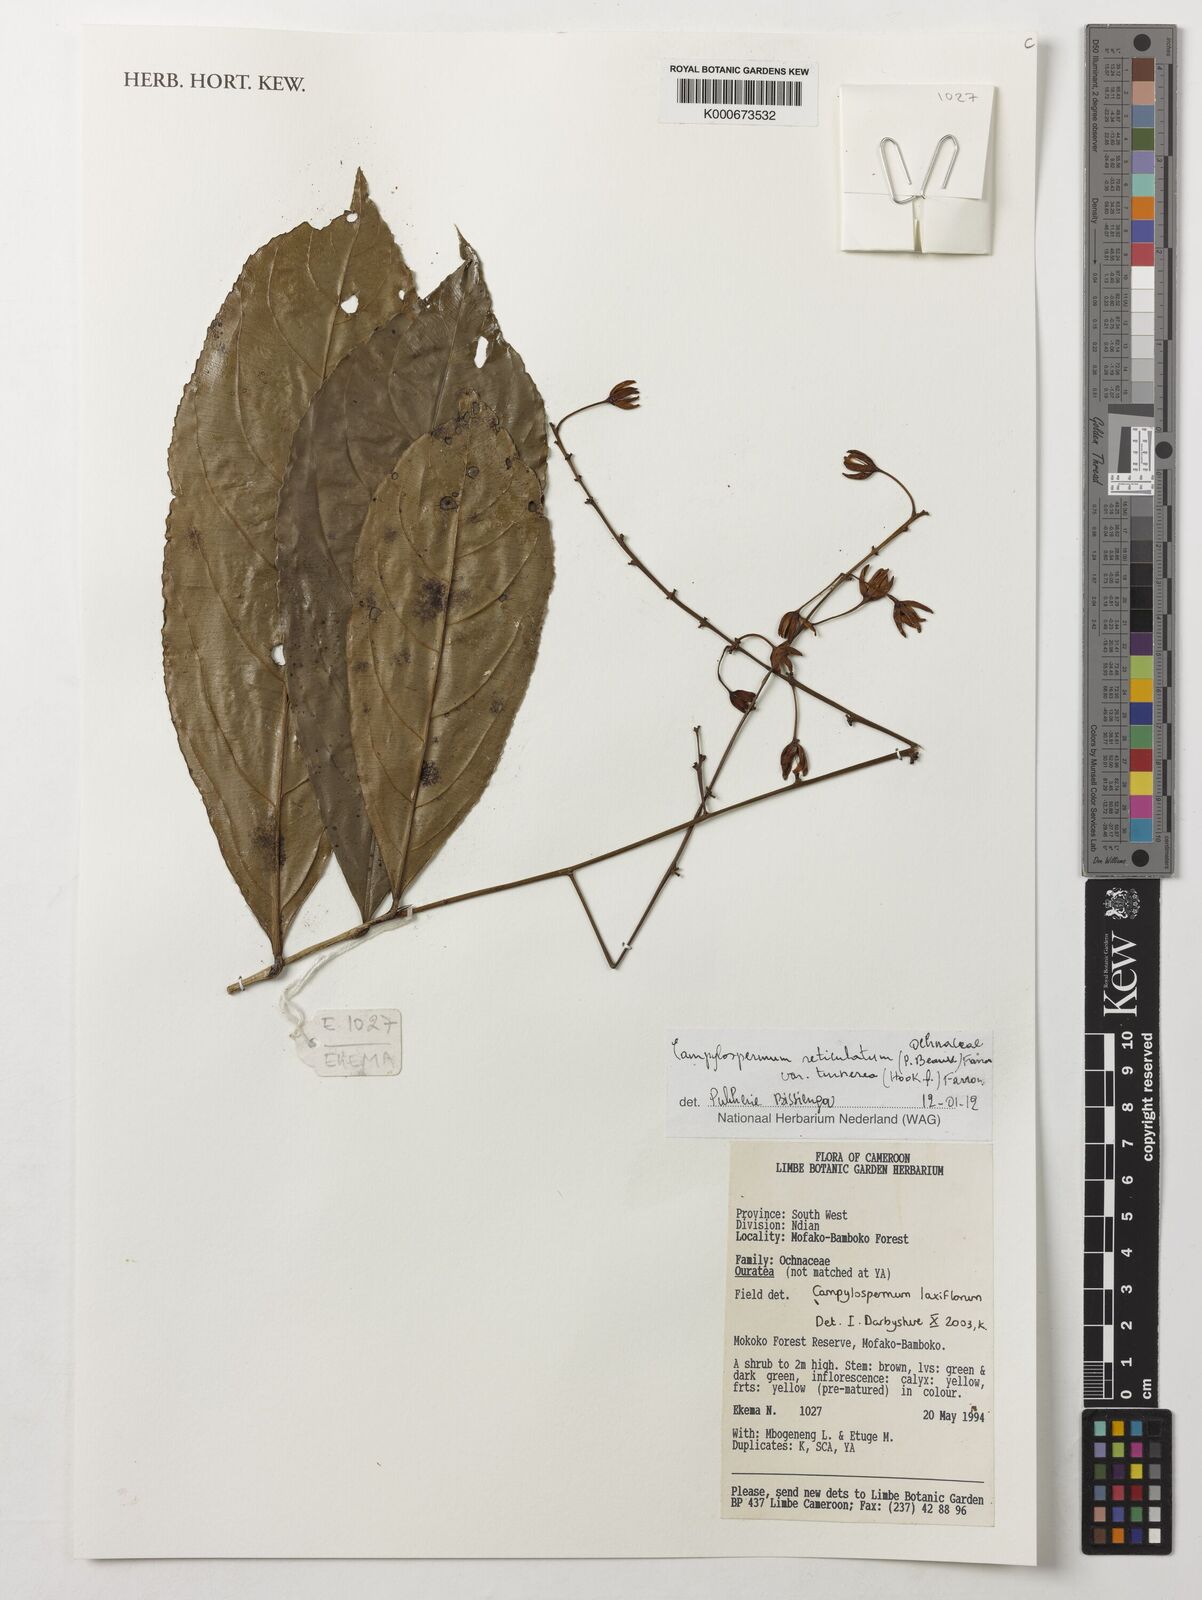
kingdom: Plantae
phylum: Tracheophyta
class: Magnoliopsida
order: Malpighiales
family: Ochnaceae
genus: Campylospermum
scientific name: Campylospermum reticulatum
